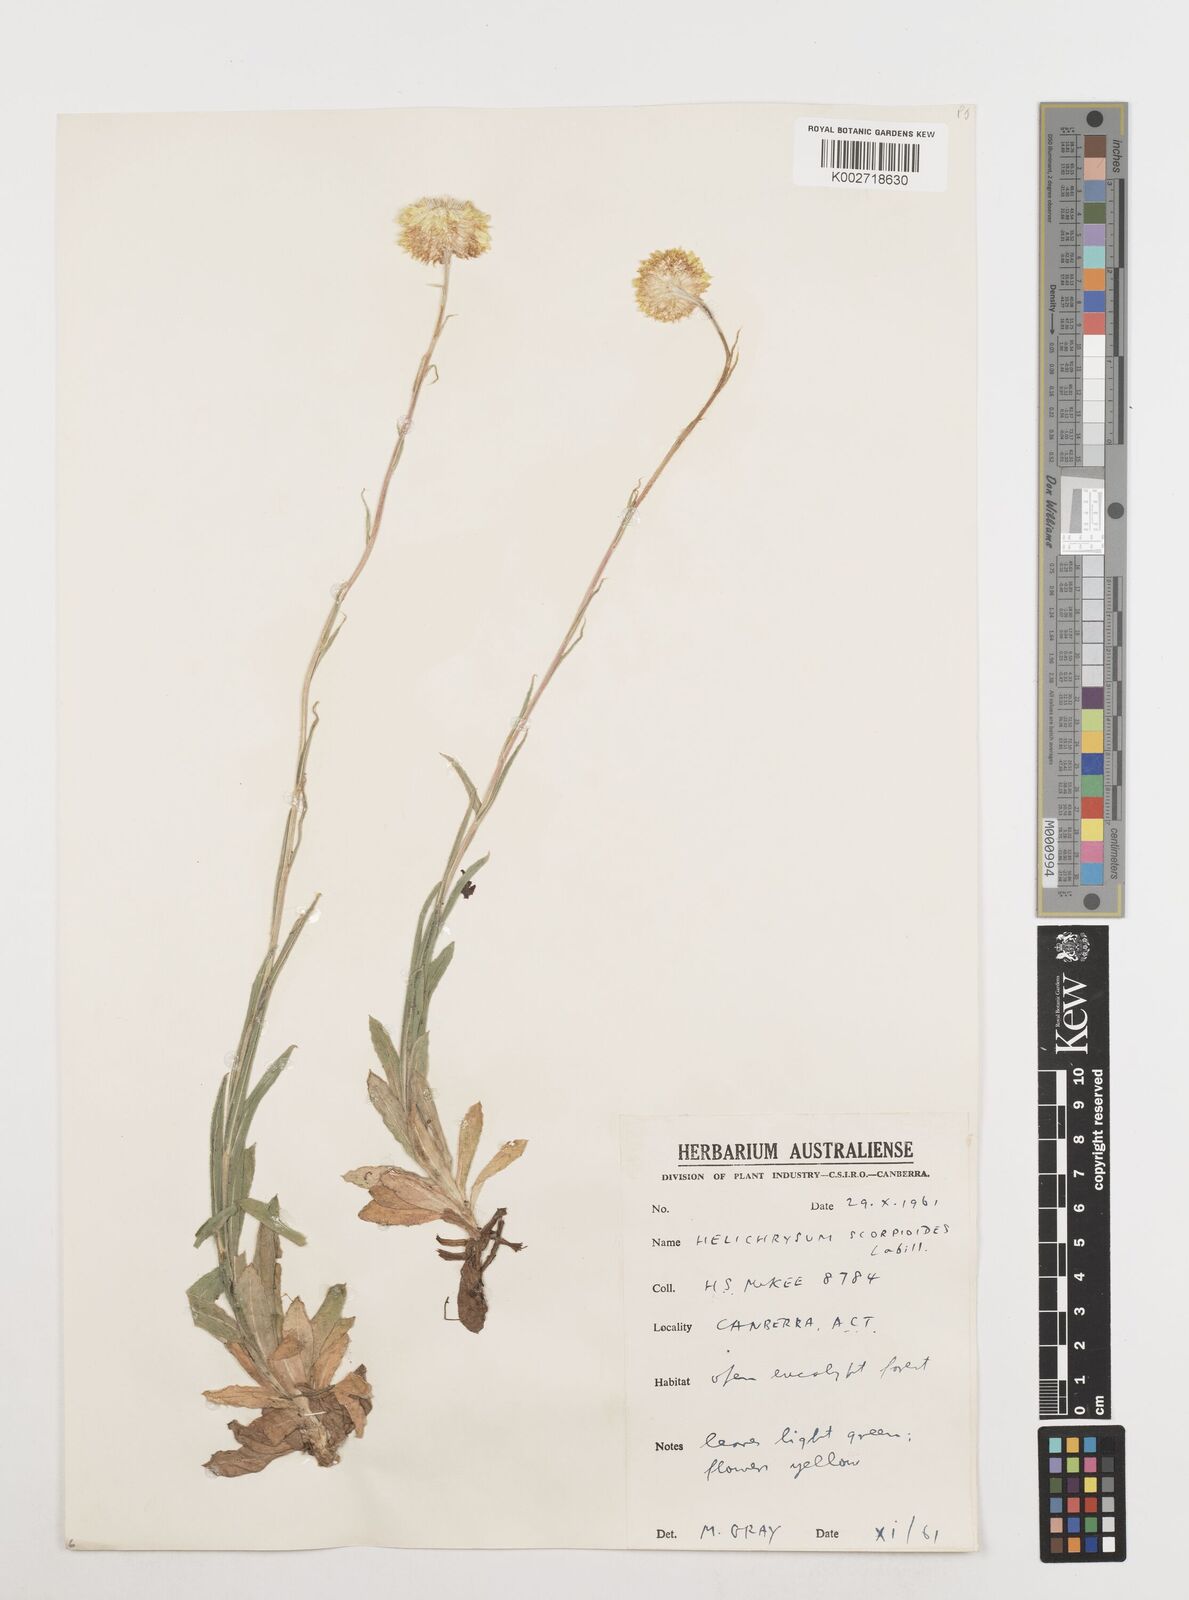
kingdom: Plantae
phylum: Tracheophyta
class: Magnoliopsida
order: Asterales
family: Asteraceae
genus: Coronidium
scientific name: Coronidium scorpioides
